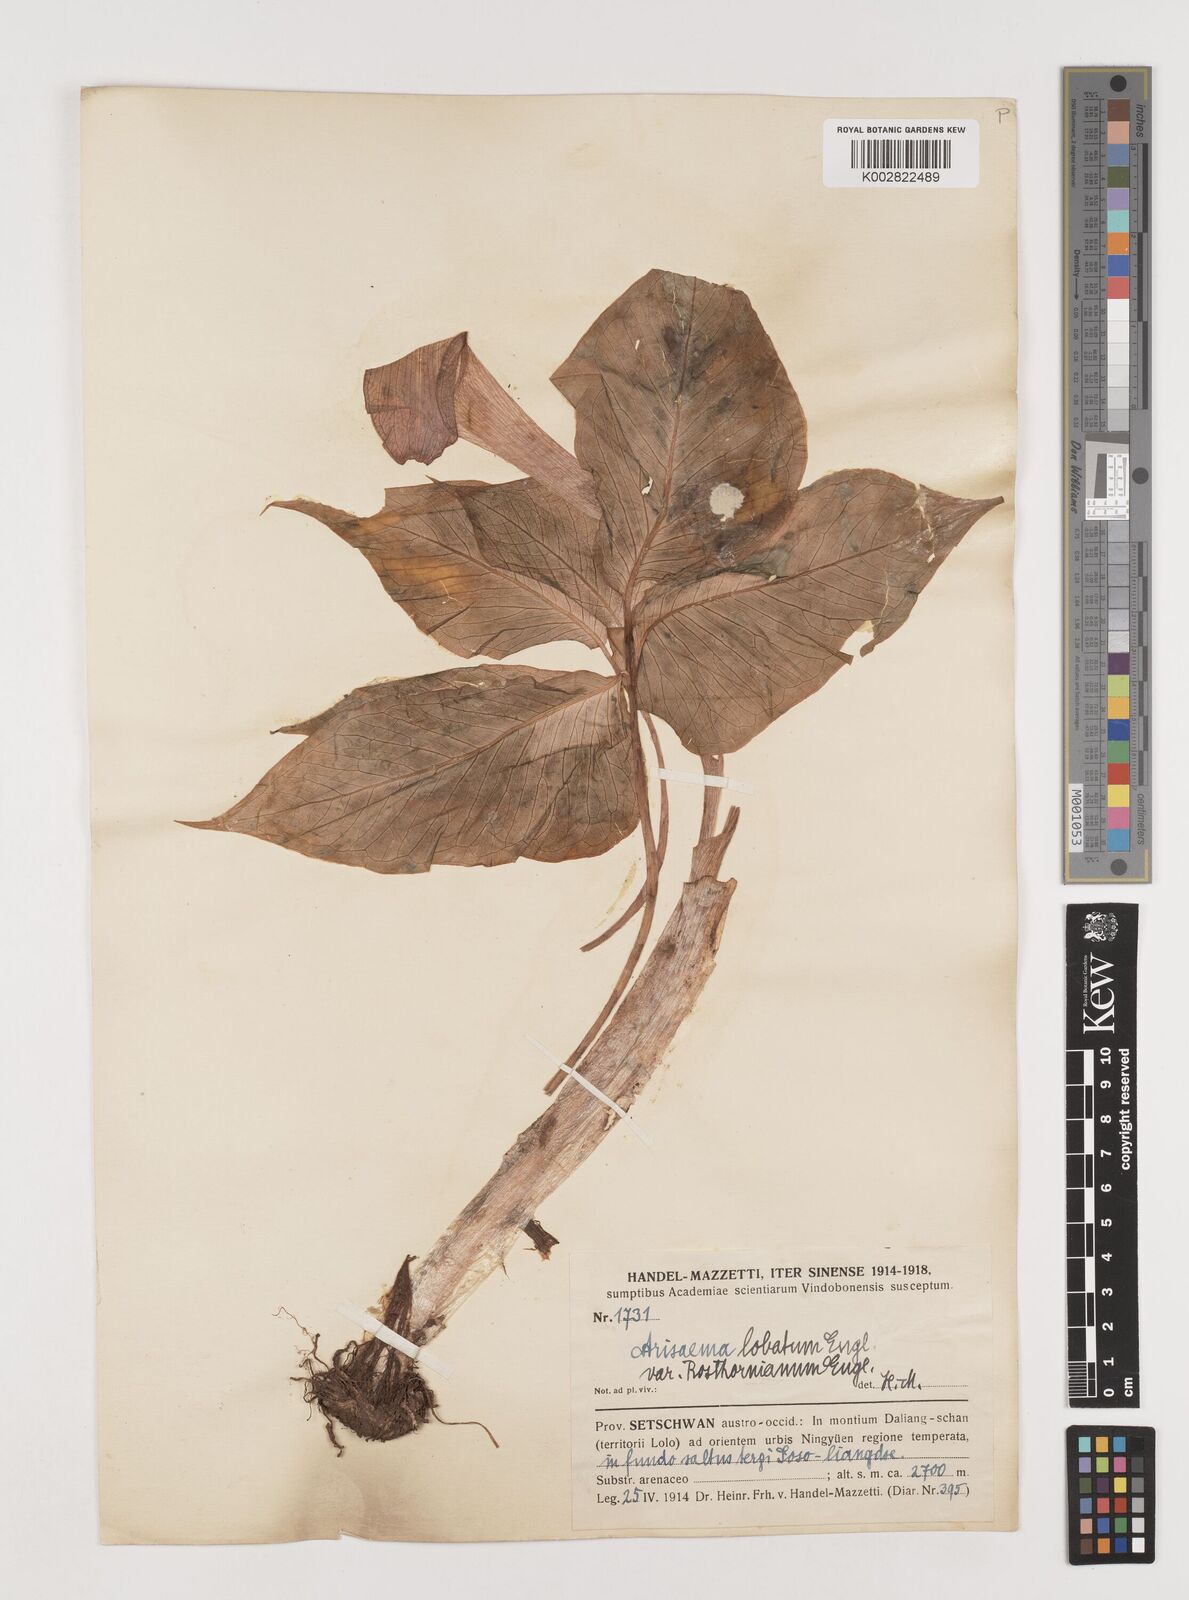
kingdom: Plantae
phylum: Tracheophyta
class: Liliopsida
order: Alismatales
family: Araceae
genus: Arisaema
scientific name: Arisaema lobatum
